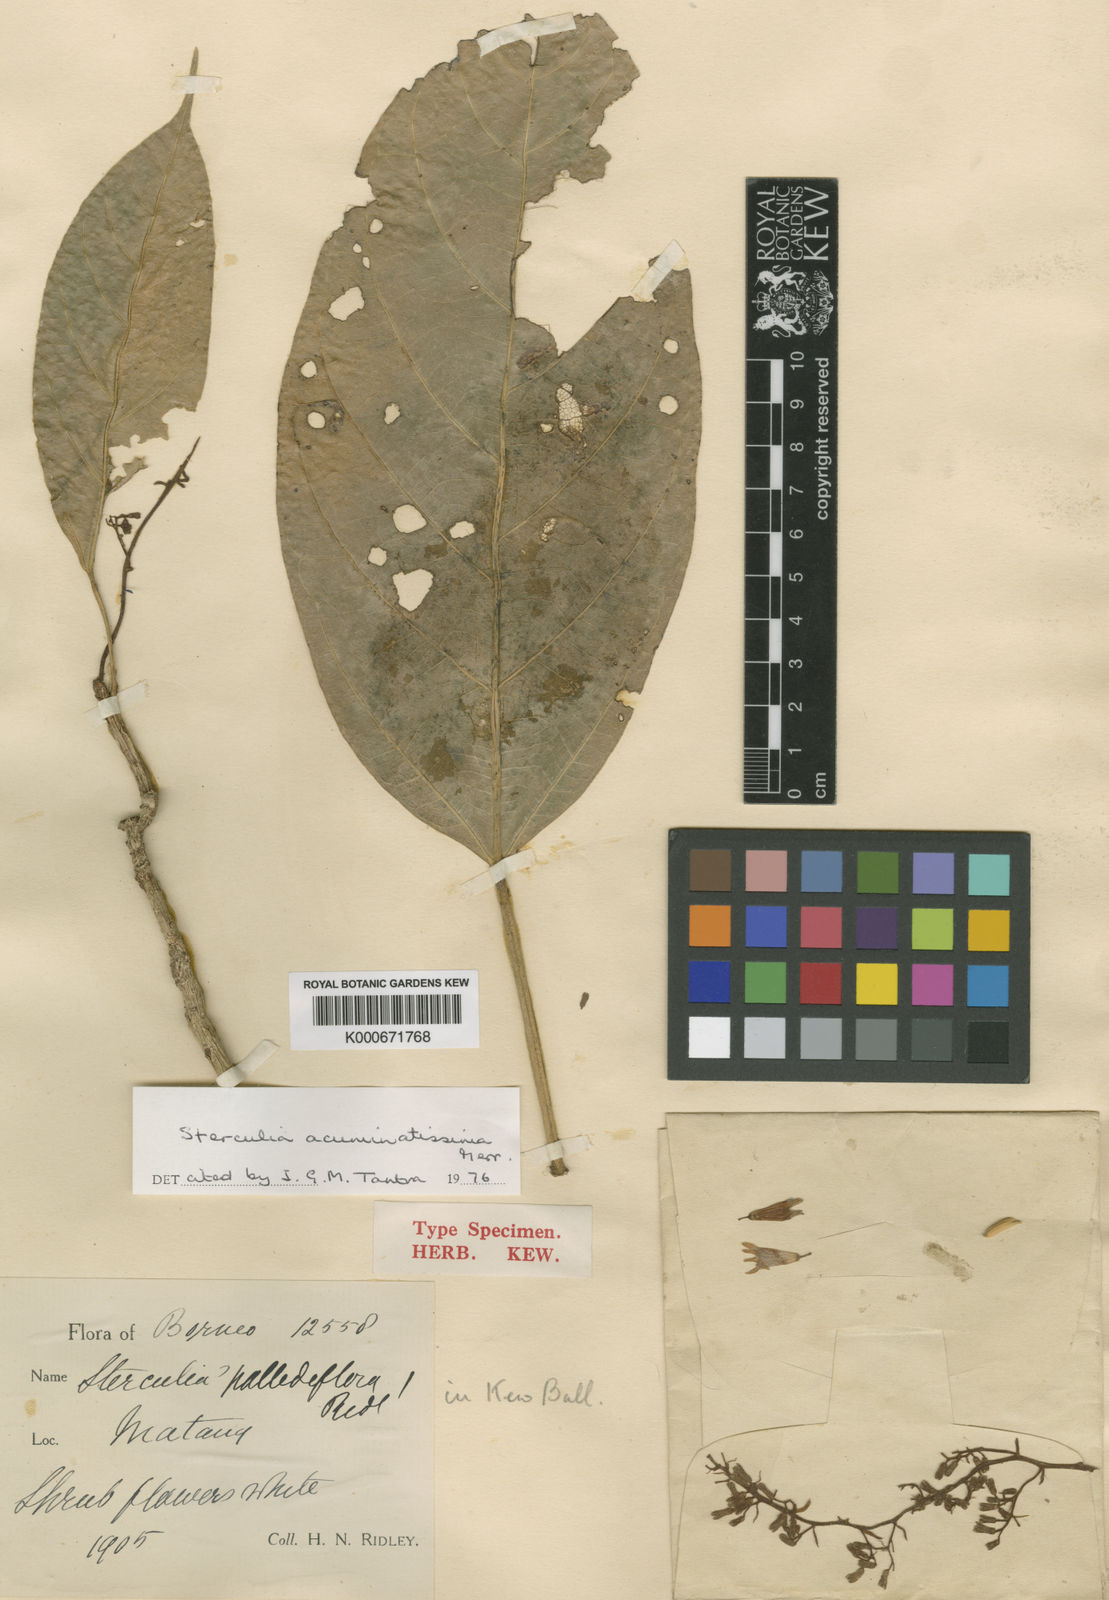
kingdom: Plantae
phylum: Tracheophyta
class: Magnoliopsida
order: Malvales
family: Malvaceae
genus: Sterculia
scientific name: Sterculia acuminatissima
